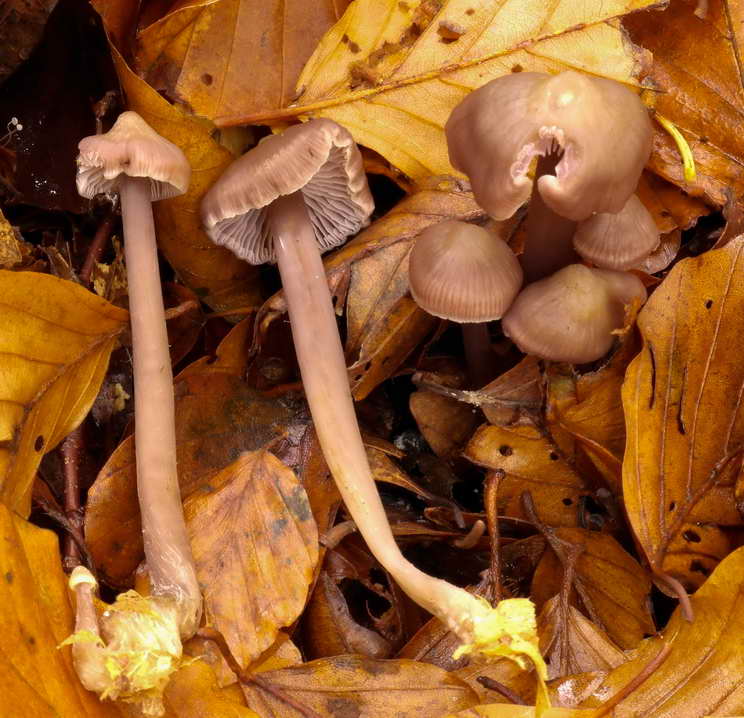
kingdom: Fungi
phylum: Basidiomycota
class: Agaricomycetes
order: Agaricales
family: Mycenaceae
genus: Prunulus
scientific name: Prunulus diosmus
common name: tobaks-huesvamp
